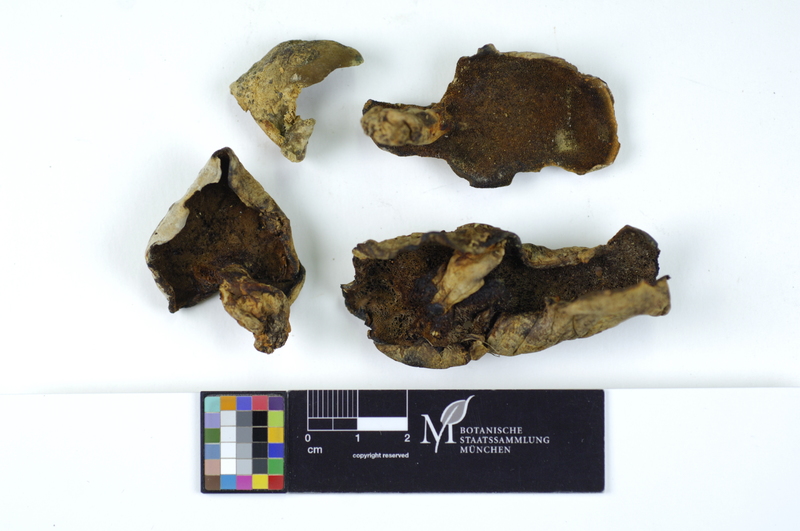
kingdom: Fungi
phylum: Basidiomycota
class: Agaricomycetes
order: Russulales
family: Albatrellaceae
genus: Albatrellus
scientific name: Albatrellus ovinus
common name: Forest lamb
